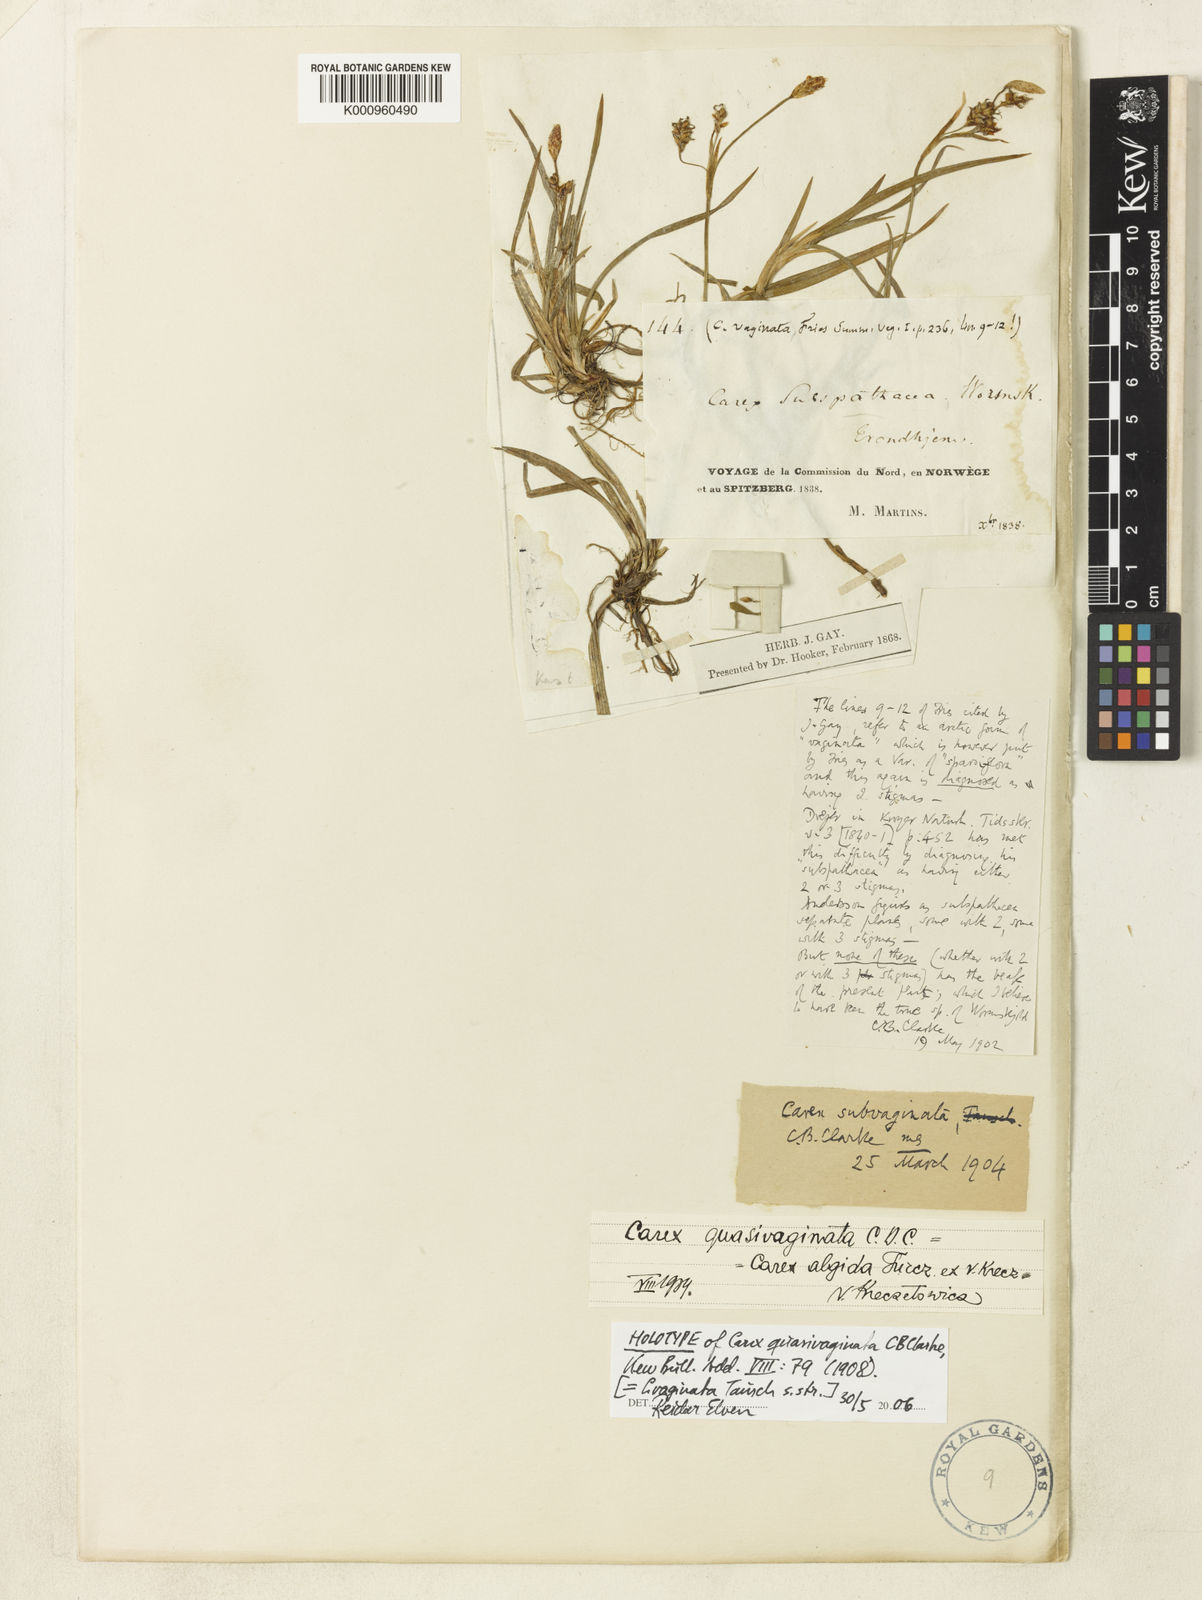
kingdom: Plantae
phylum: Tracheophyta
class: Liliopsida
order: Poales
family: Cyperaceae
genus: Carex
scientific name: Carex vaginata
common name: Sheathed sedge
